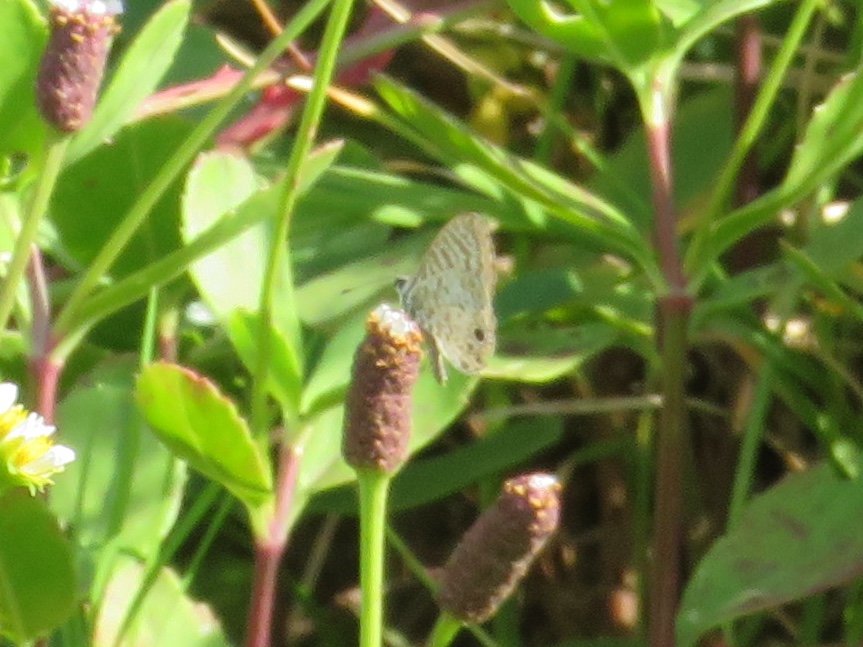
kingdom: Animalia
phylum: Arthropoda
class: Insecta
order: Lepidoptera
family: Lycaenidae
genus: Leptotes
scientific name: Leptotes cassius
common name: Cassius Blue
